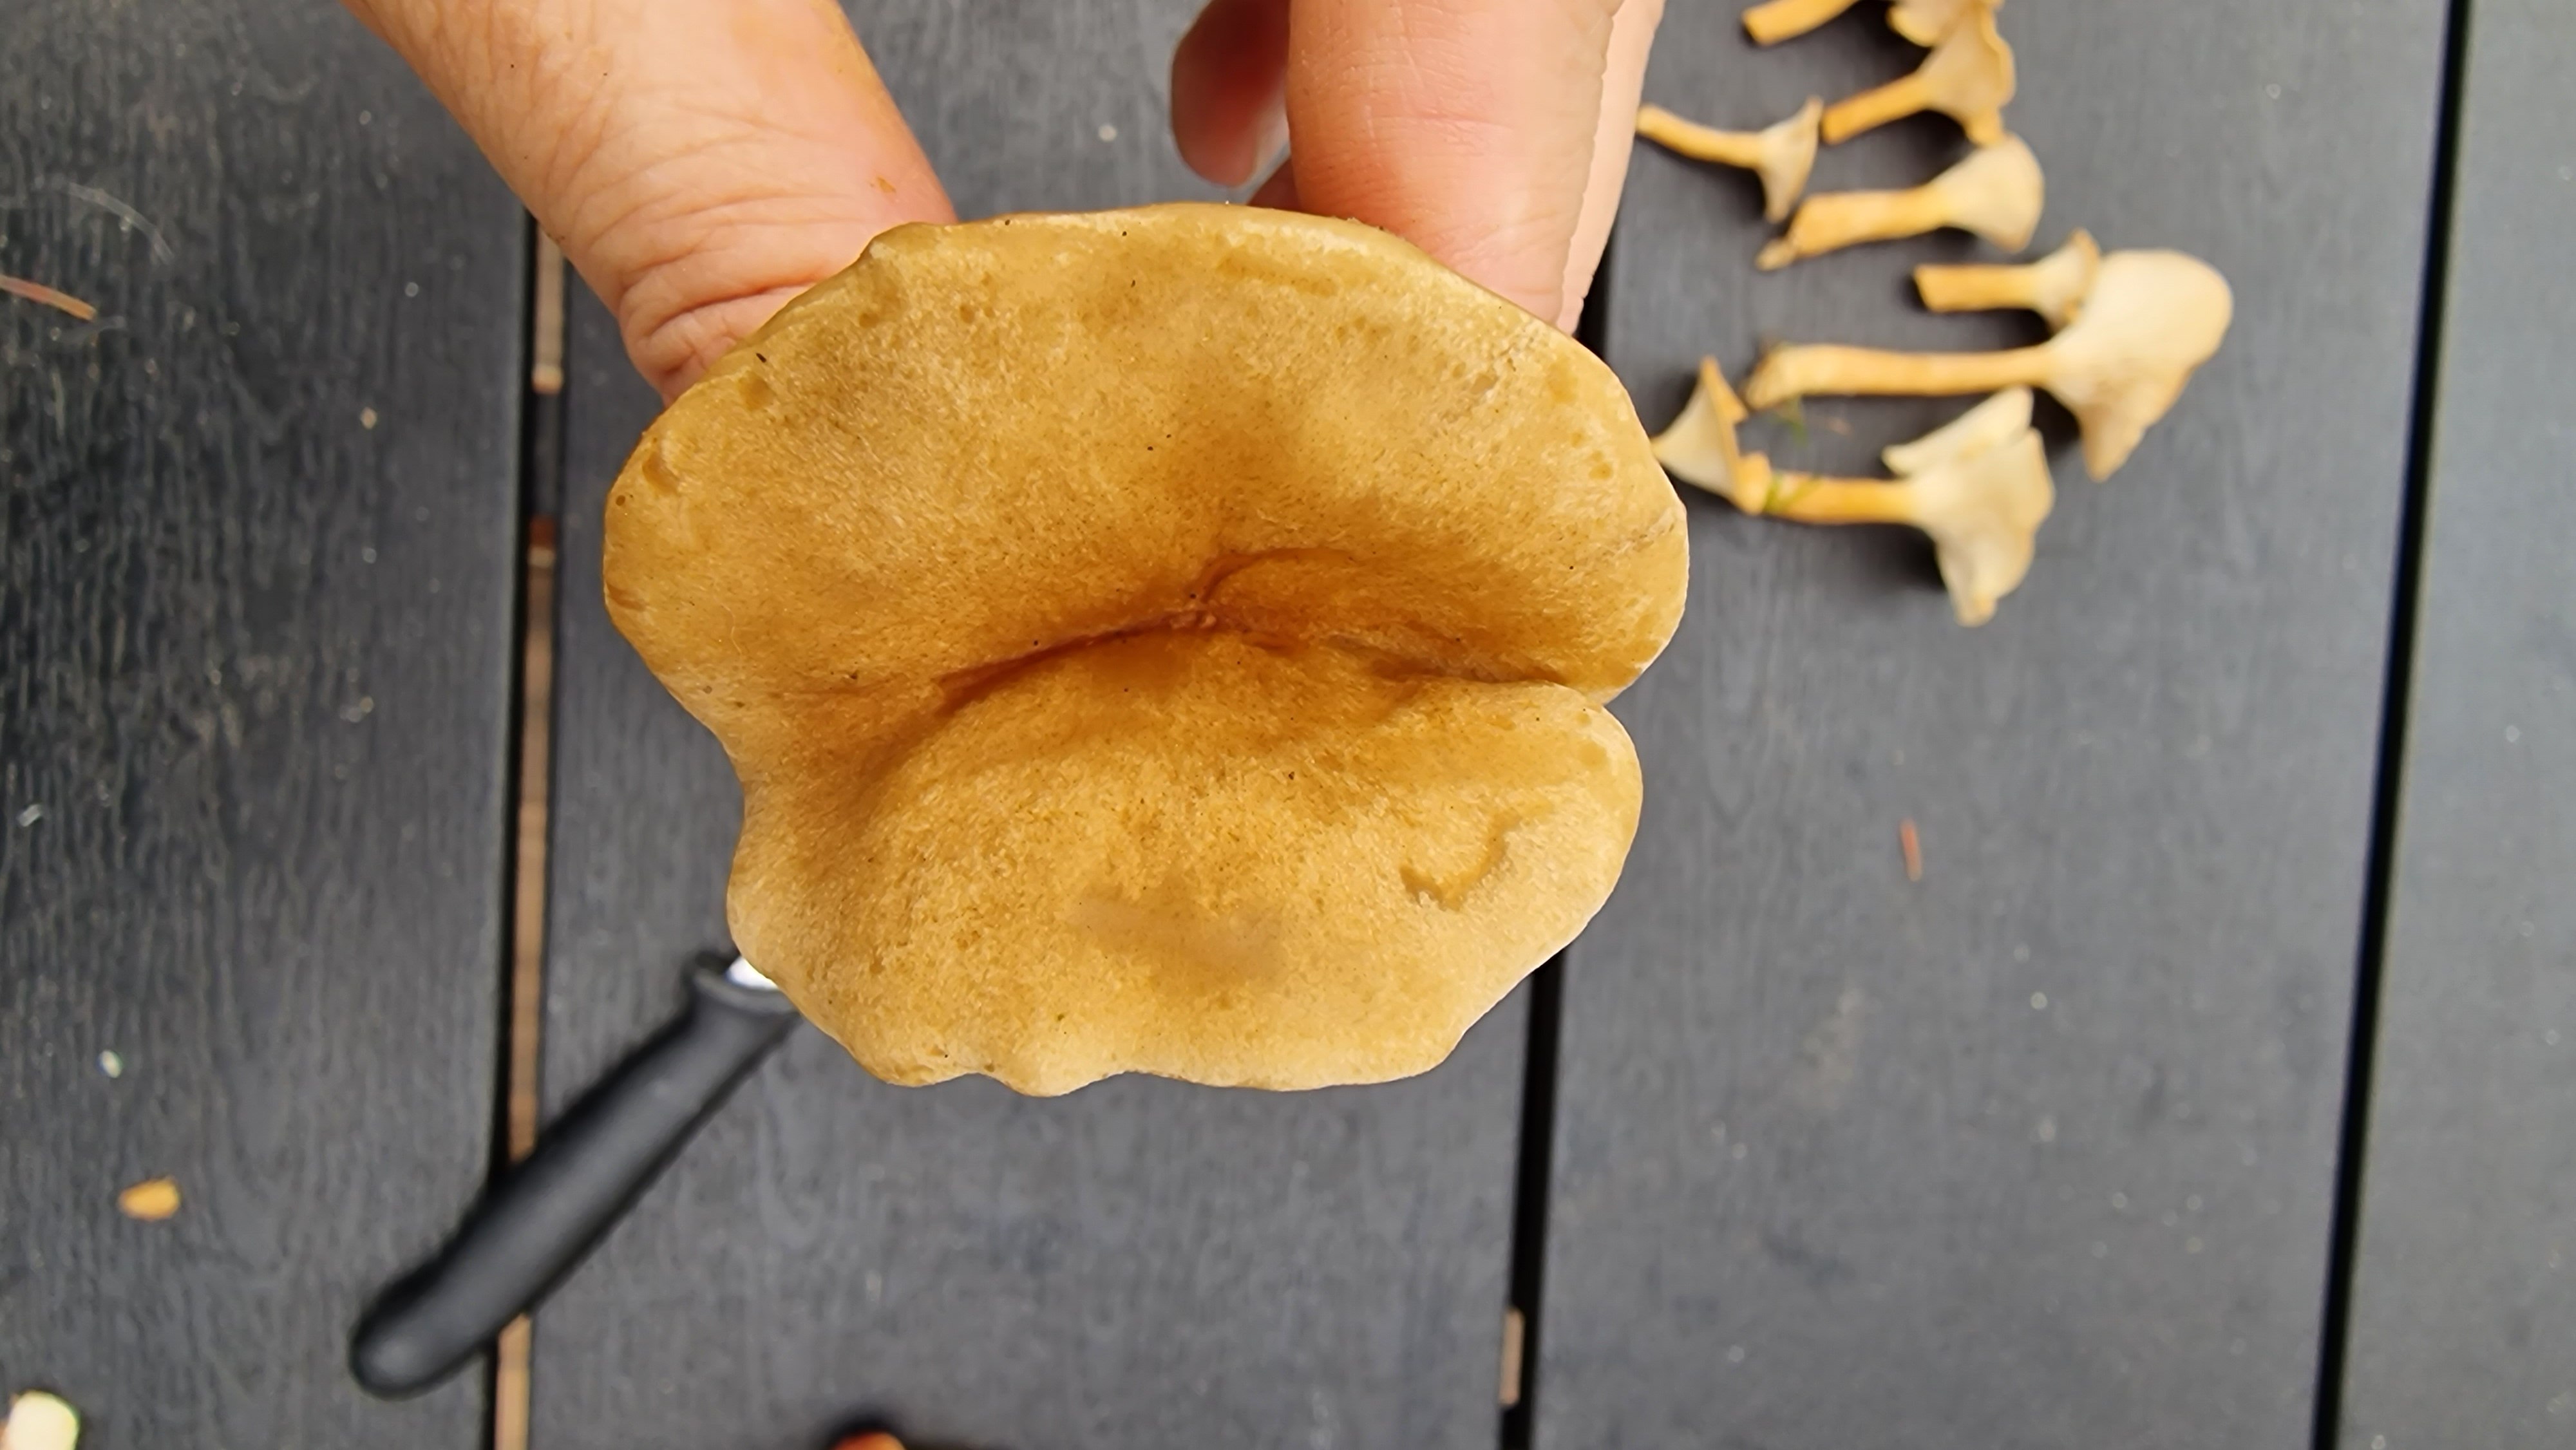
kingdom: Fungi
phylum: Basidiomycota
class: Agaricomycetes
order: Agaricales
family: Tricholomataceae
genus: Infundibulicybe
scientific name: Infundibulicybe
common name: tragthat
